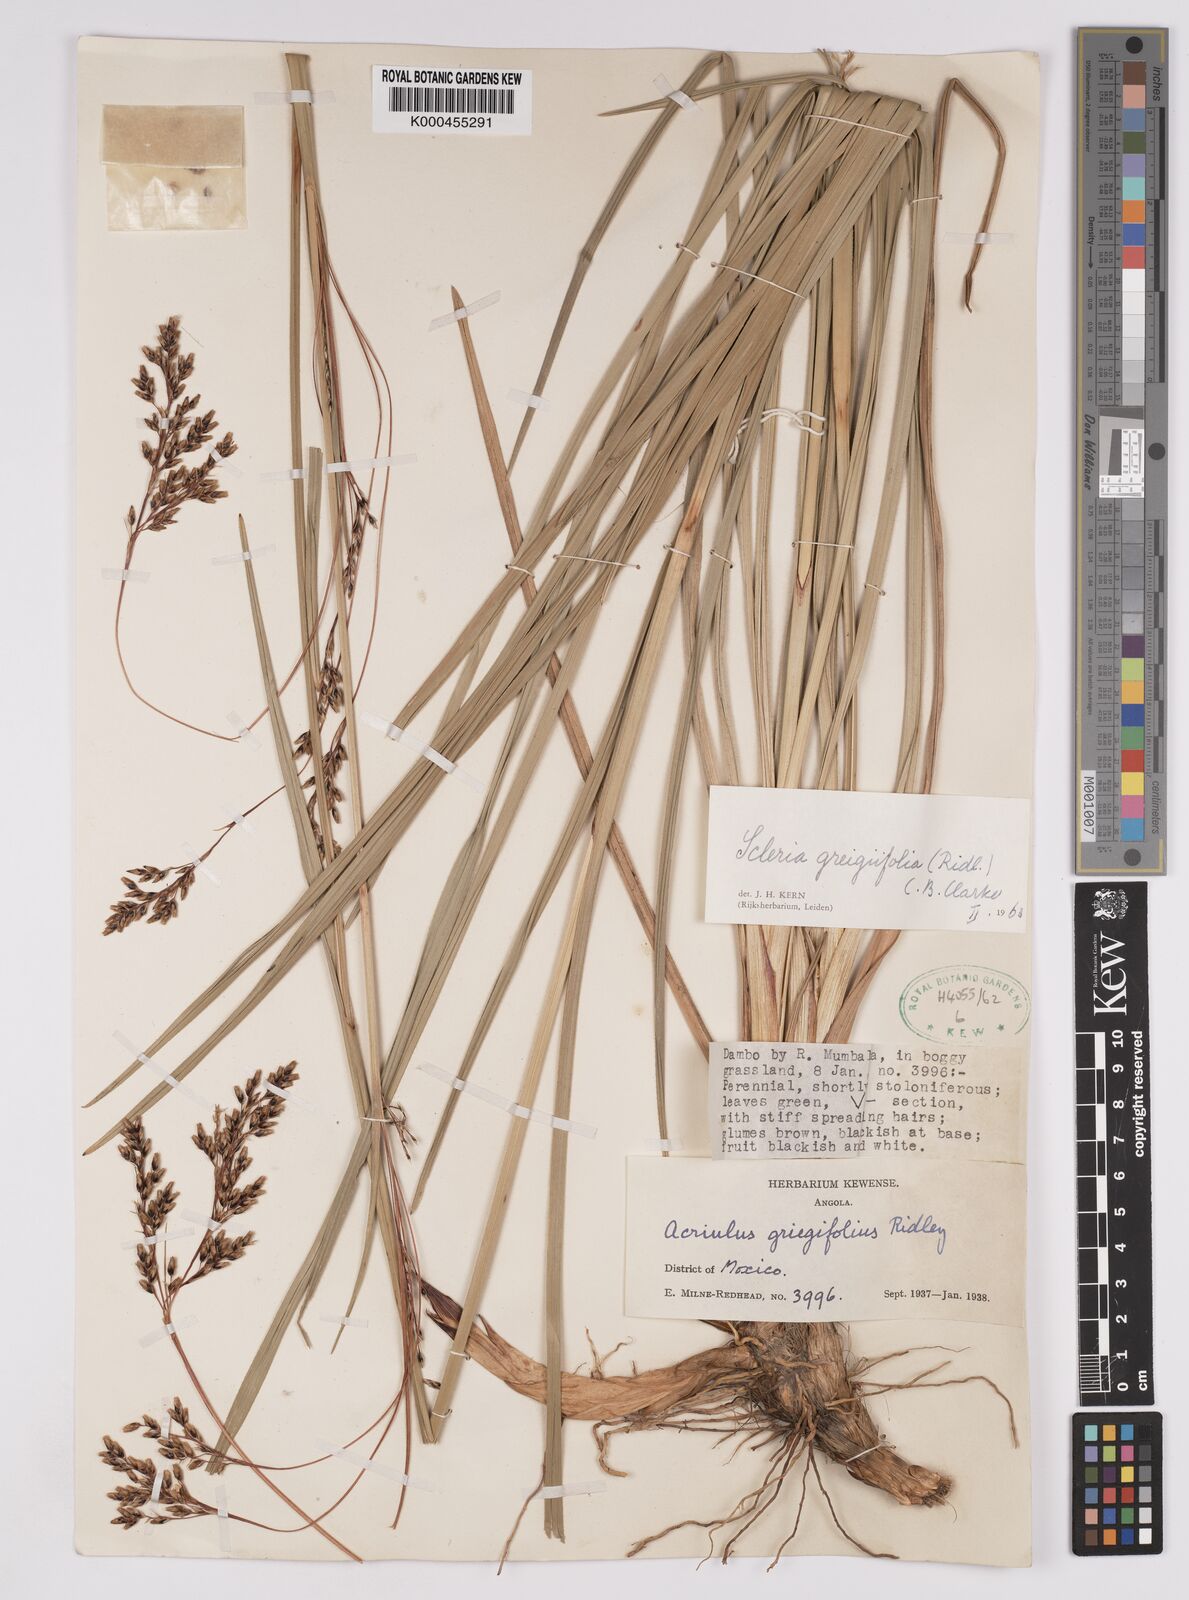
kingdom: Plantae
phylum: Tracheophyta
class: Liliopsida
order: Poales
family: Cyperaceae
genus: Scleria
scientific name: Scleria greigiifolia
